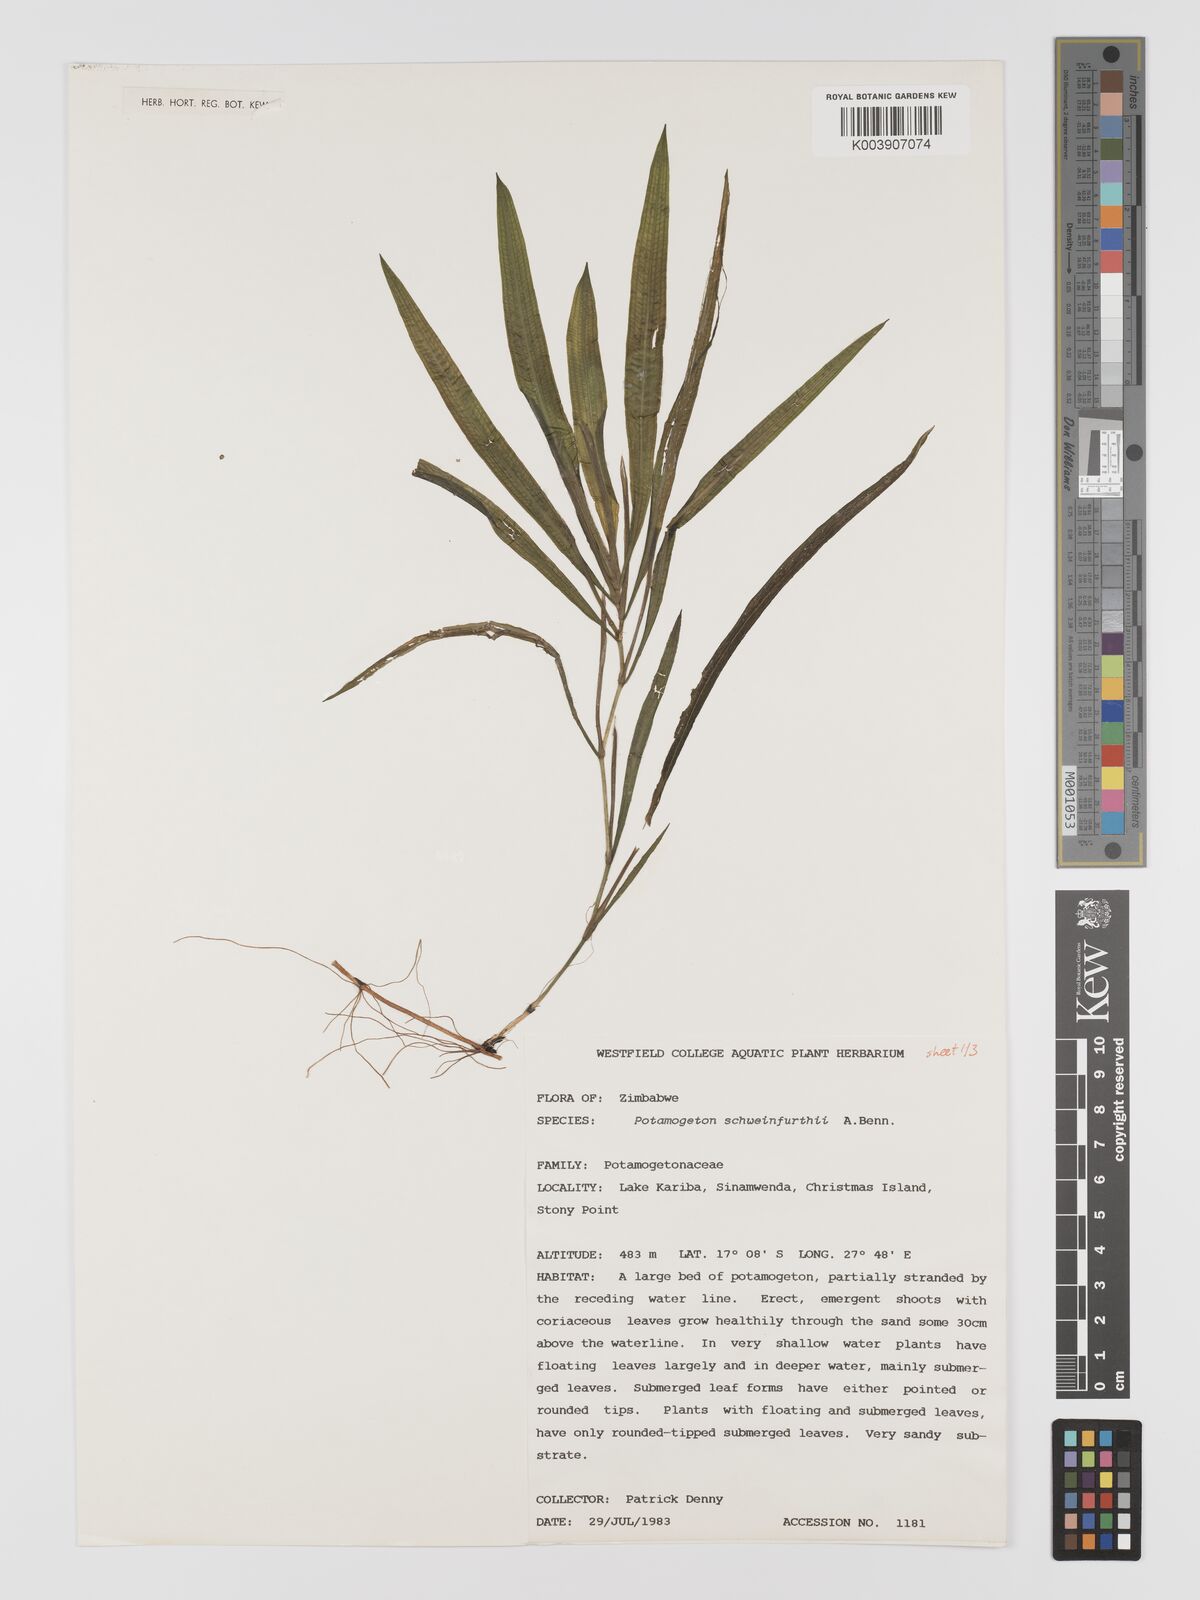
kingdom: Plantae
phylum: Tracheophyta
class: Liliopsida
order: Alismatales
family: Potamogetonaceae
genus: Potamogeton
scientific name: Potamogeton schweinfurthii
